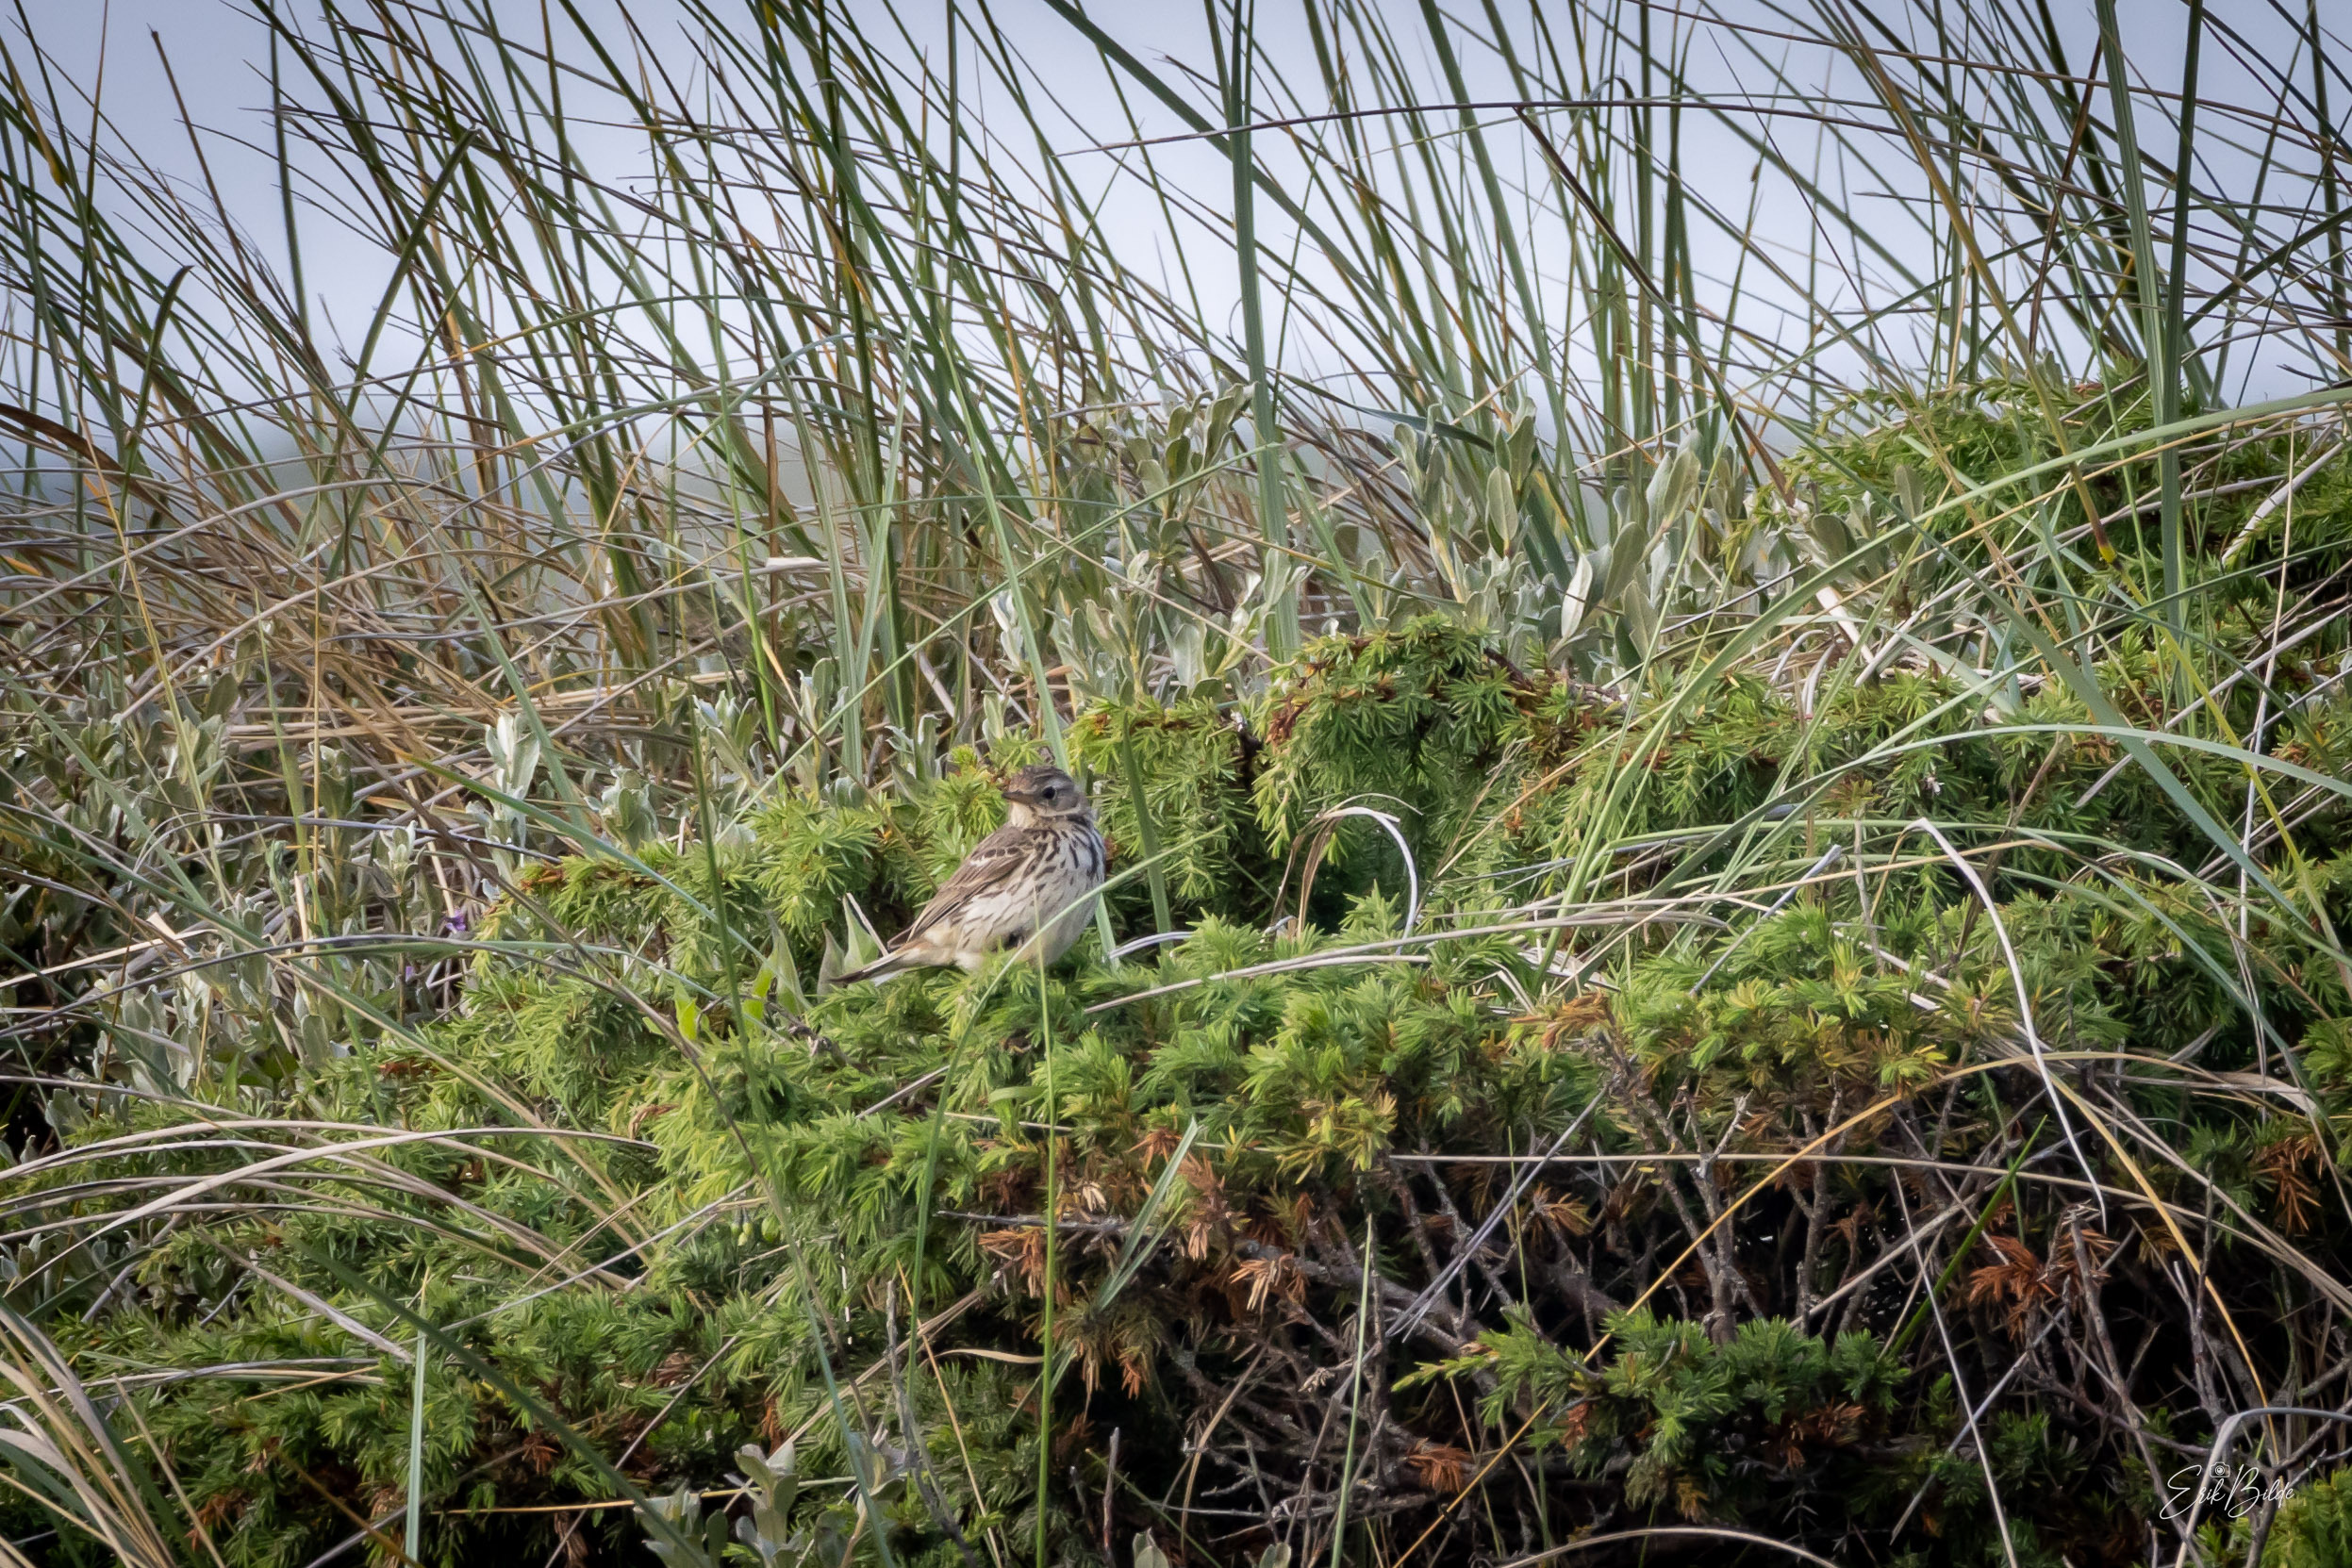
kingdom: Animalia
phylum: Chordata
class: Aves
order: Passeriformes
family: Motacillidae
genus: Anthus
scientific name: Anthus pratensis
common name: Engpiber
